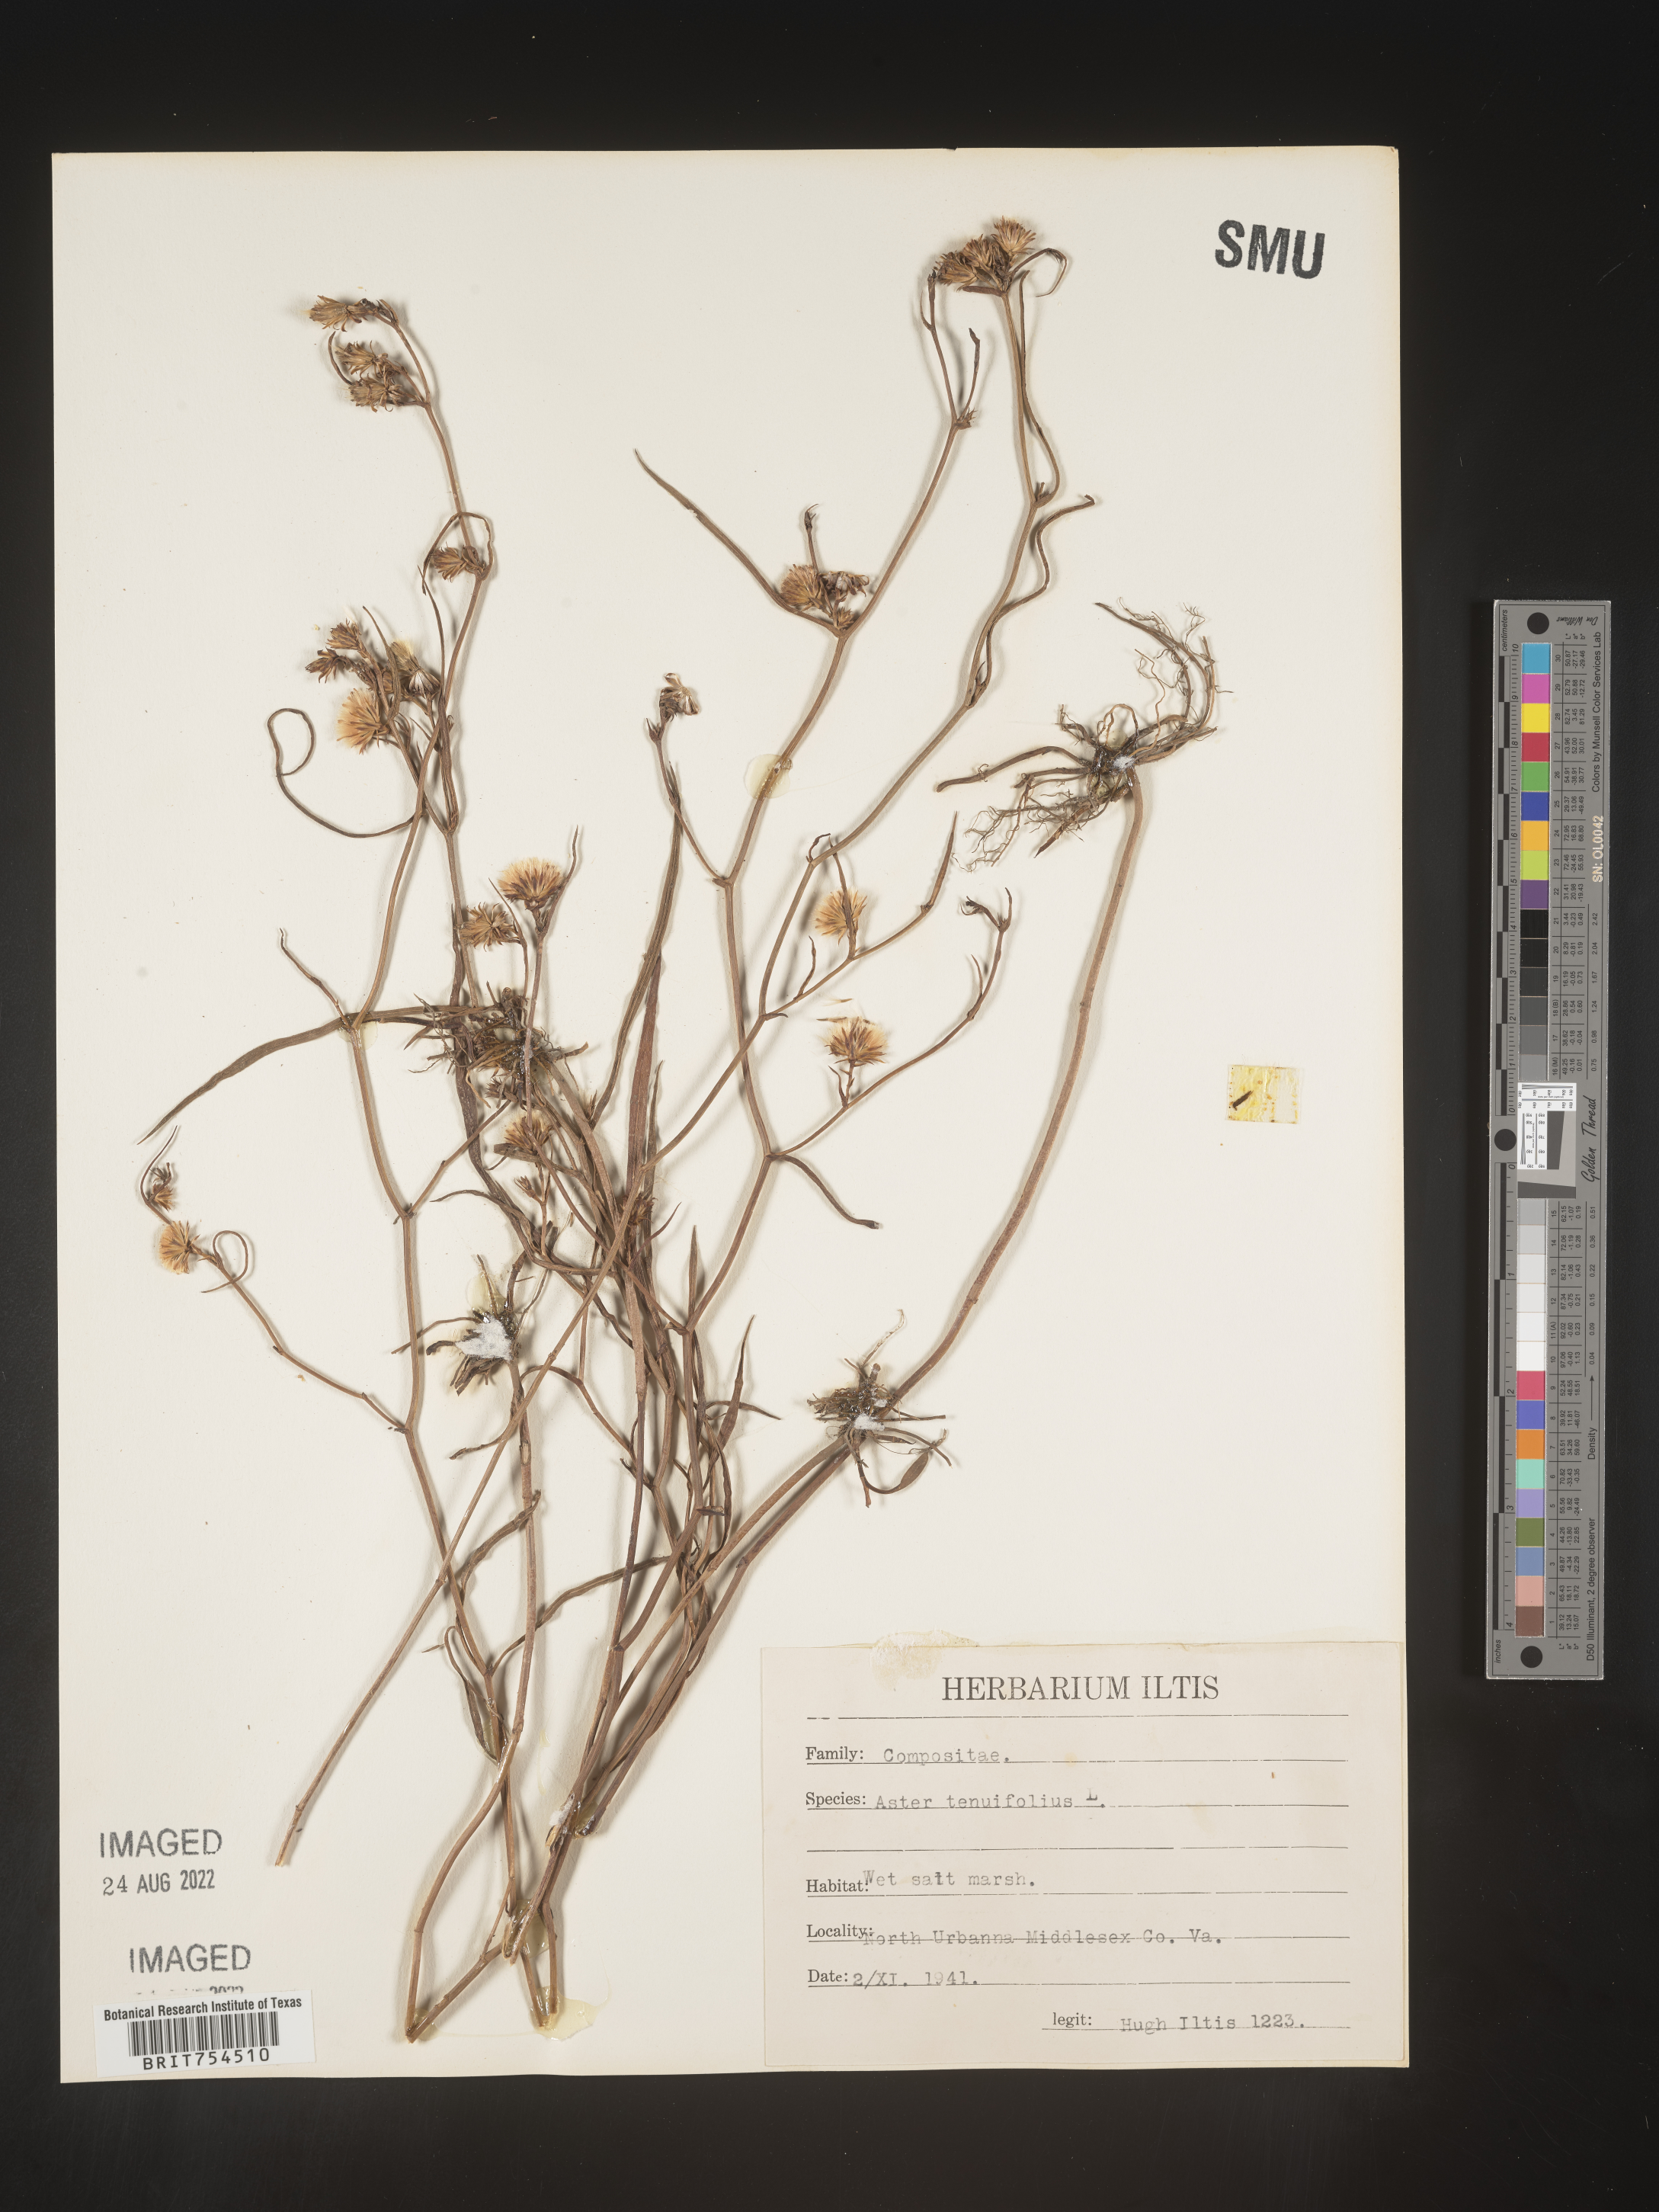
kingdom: Plantae
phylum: Tracheophyta
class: Magnoliopsida
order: Asterales
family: Asteraceae
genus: Symphyotrichum
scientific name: Symphyotrichum tenuifolium
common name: Perennial salt-marsh aster
